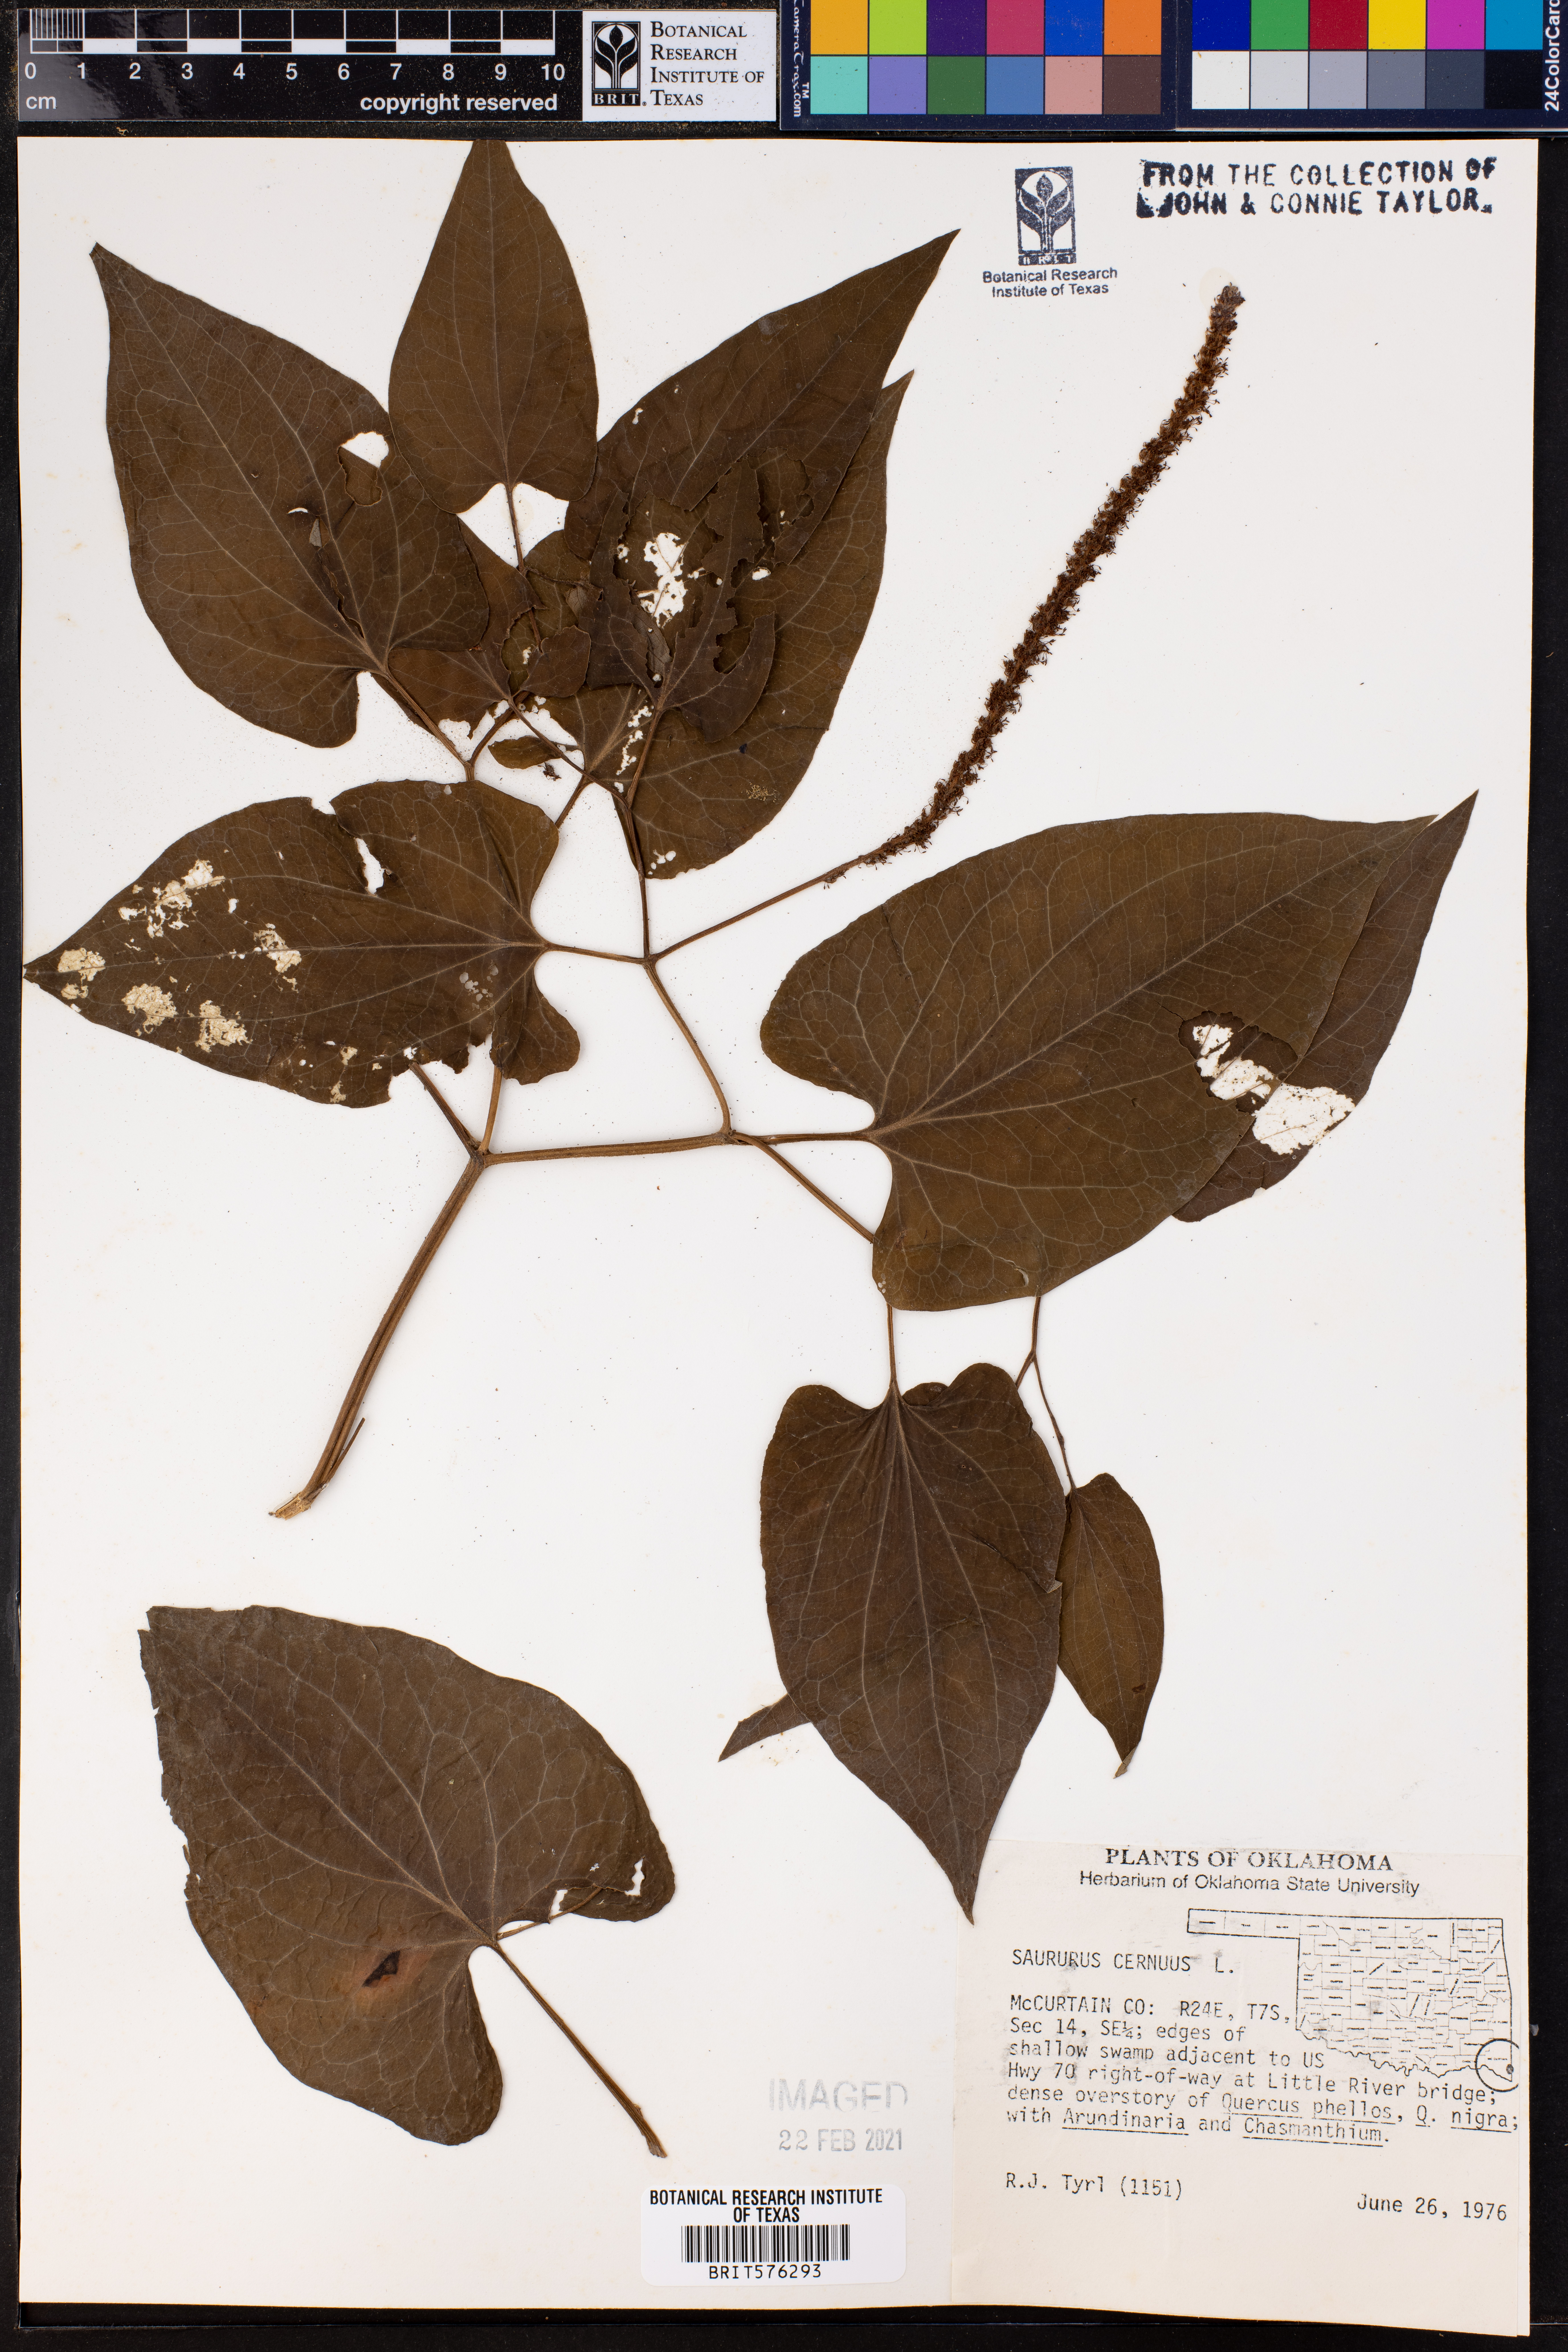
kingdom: Plantae
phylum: Tracheophyta
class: Magnoliopsida
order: Piperales
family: Saururaceae
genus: Saururus
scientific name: Saururus cernuus
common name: Lizard's-tail
